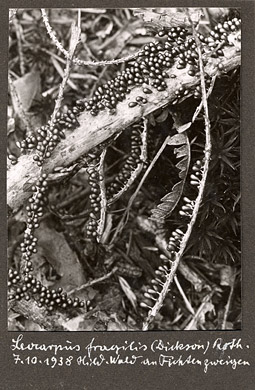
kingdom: Protozoa
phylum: Mycetozoa
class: Myxomycetes
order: Physarales
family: Physaraceae
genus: Leocarpus
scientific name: Leocarpus fragilis
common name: Insect-egg slime
